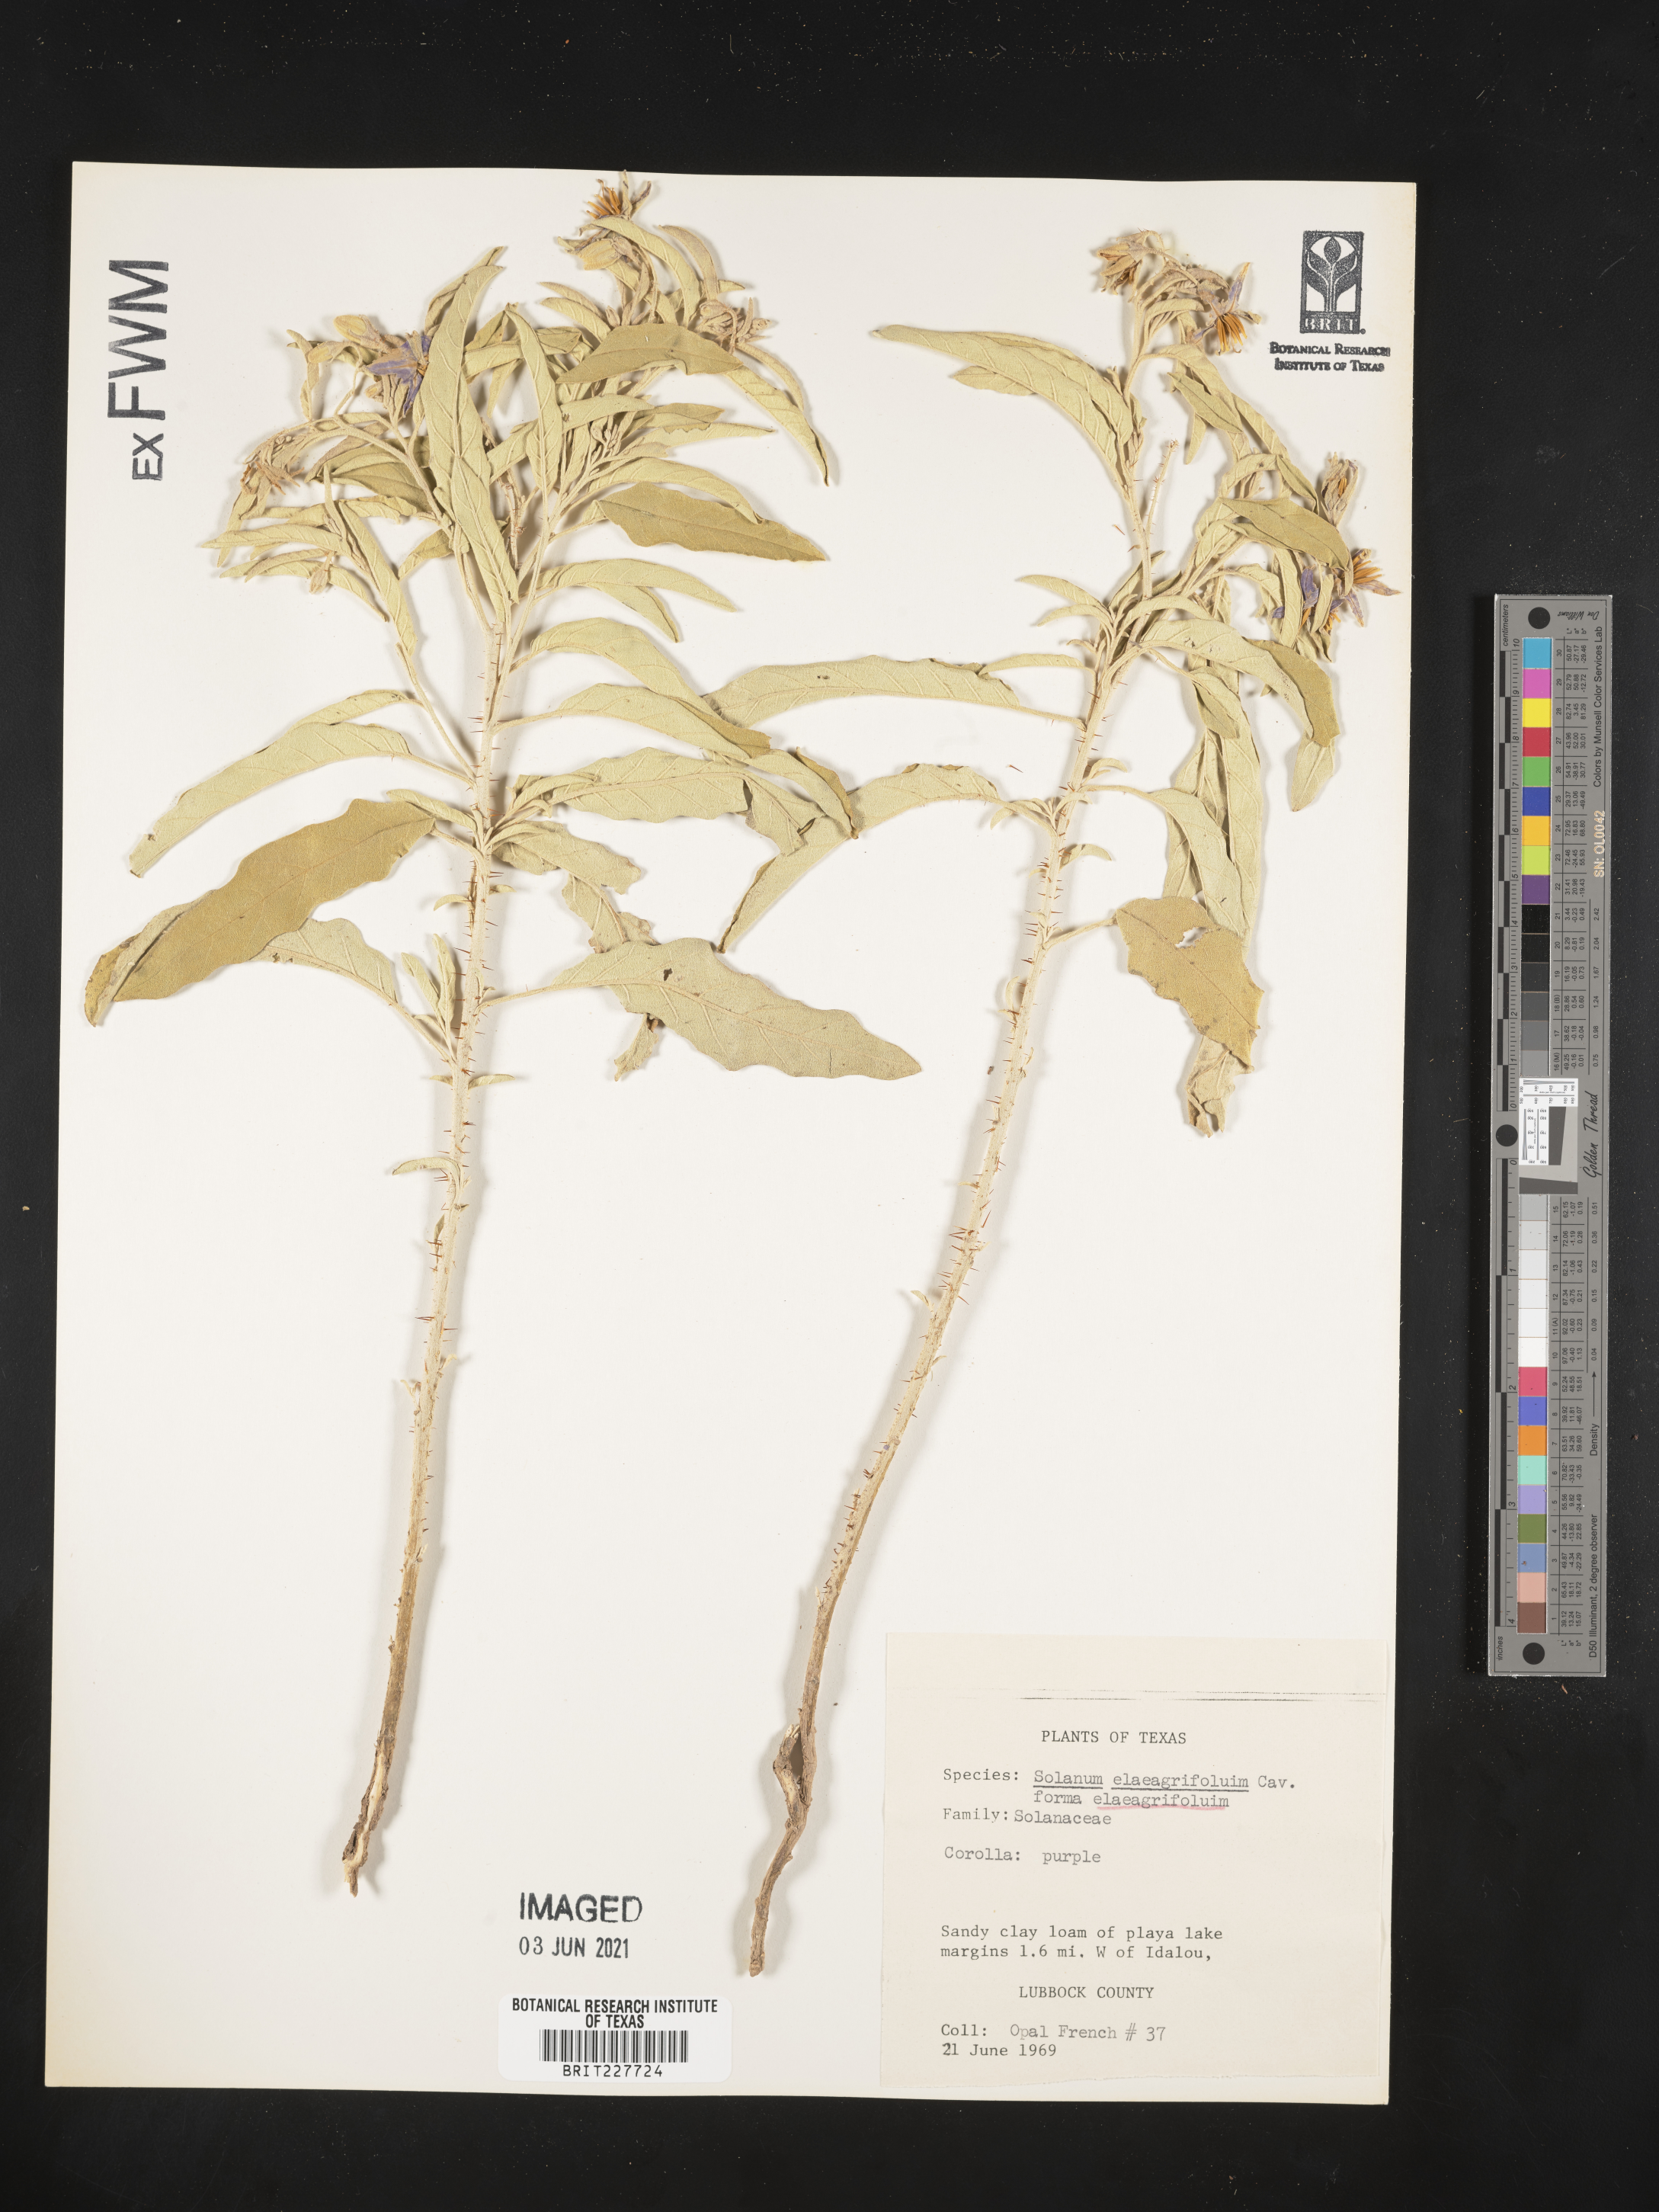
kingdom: Plantae
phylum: Tracheophyta
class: Magnoliopsida
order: Solanales
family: Solanaceae
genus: Solanum
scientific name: Solanum elaeagnifolium
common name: Silverleaf nightshade
